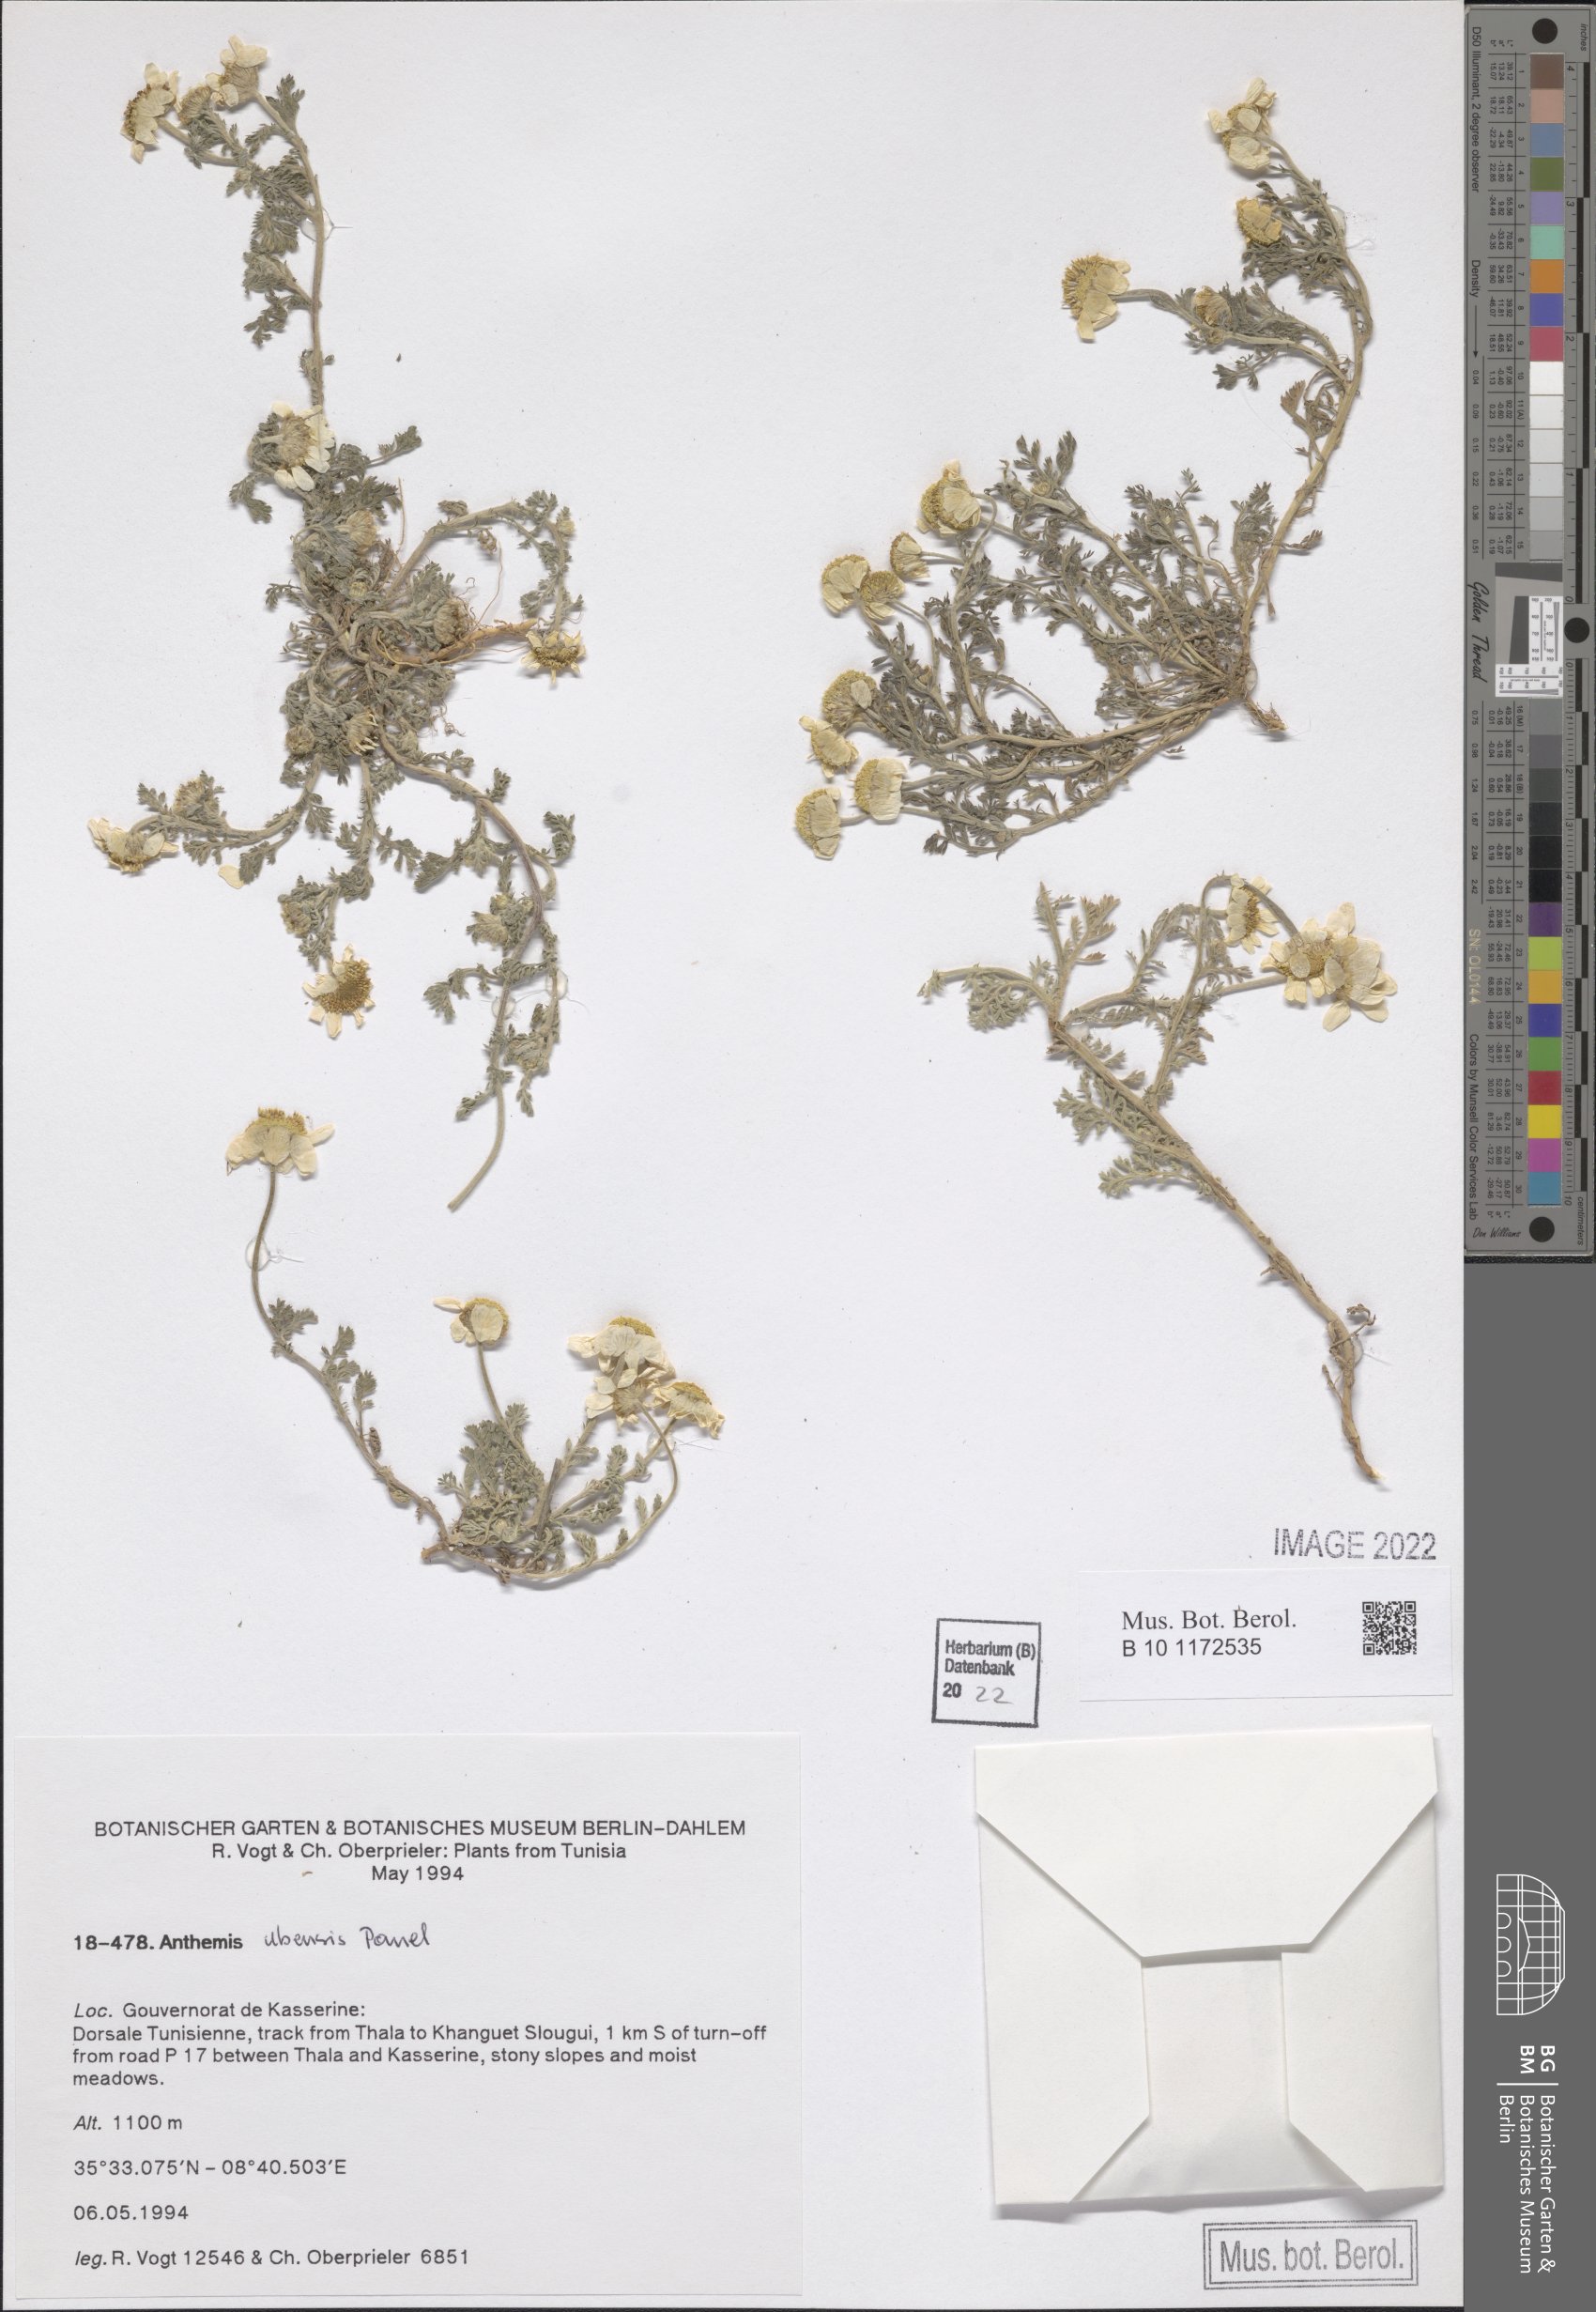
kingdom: Plantae
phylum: Tracheophyta
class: Magnoliopsida
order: Asterales
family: Asteraceae
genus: Anthemis
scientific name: Anthemis ubensis
